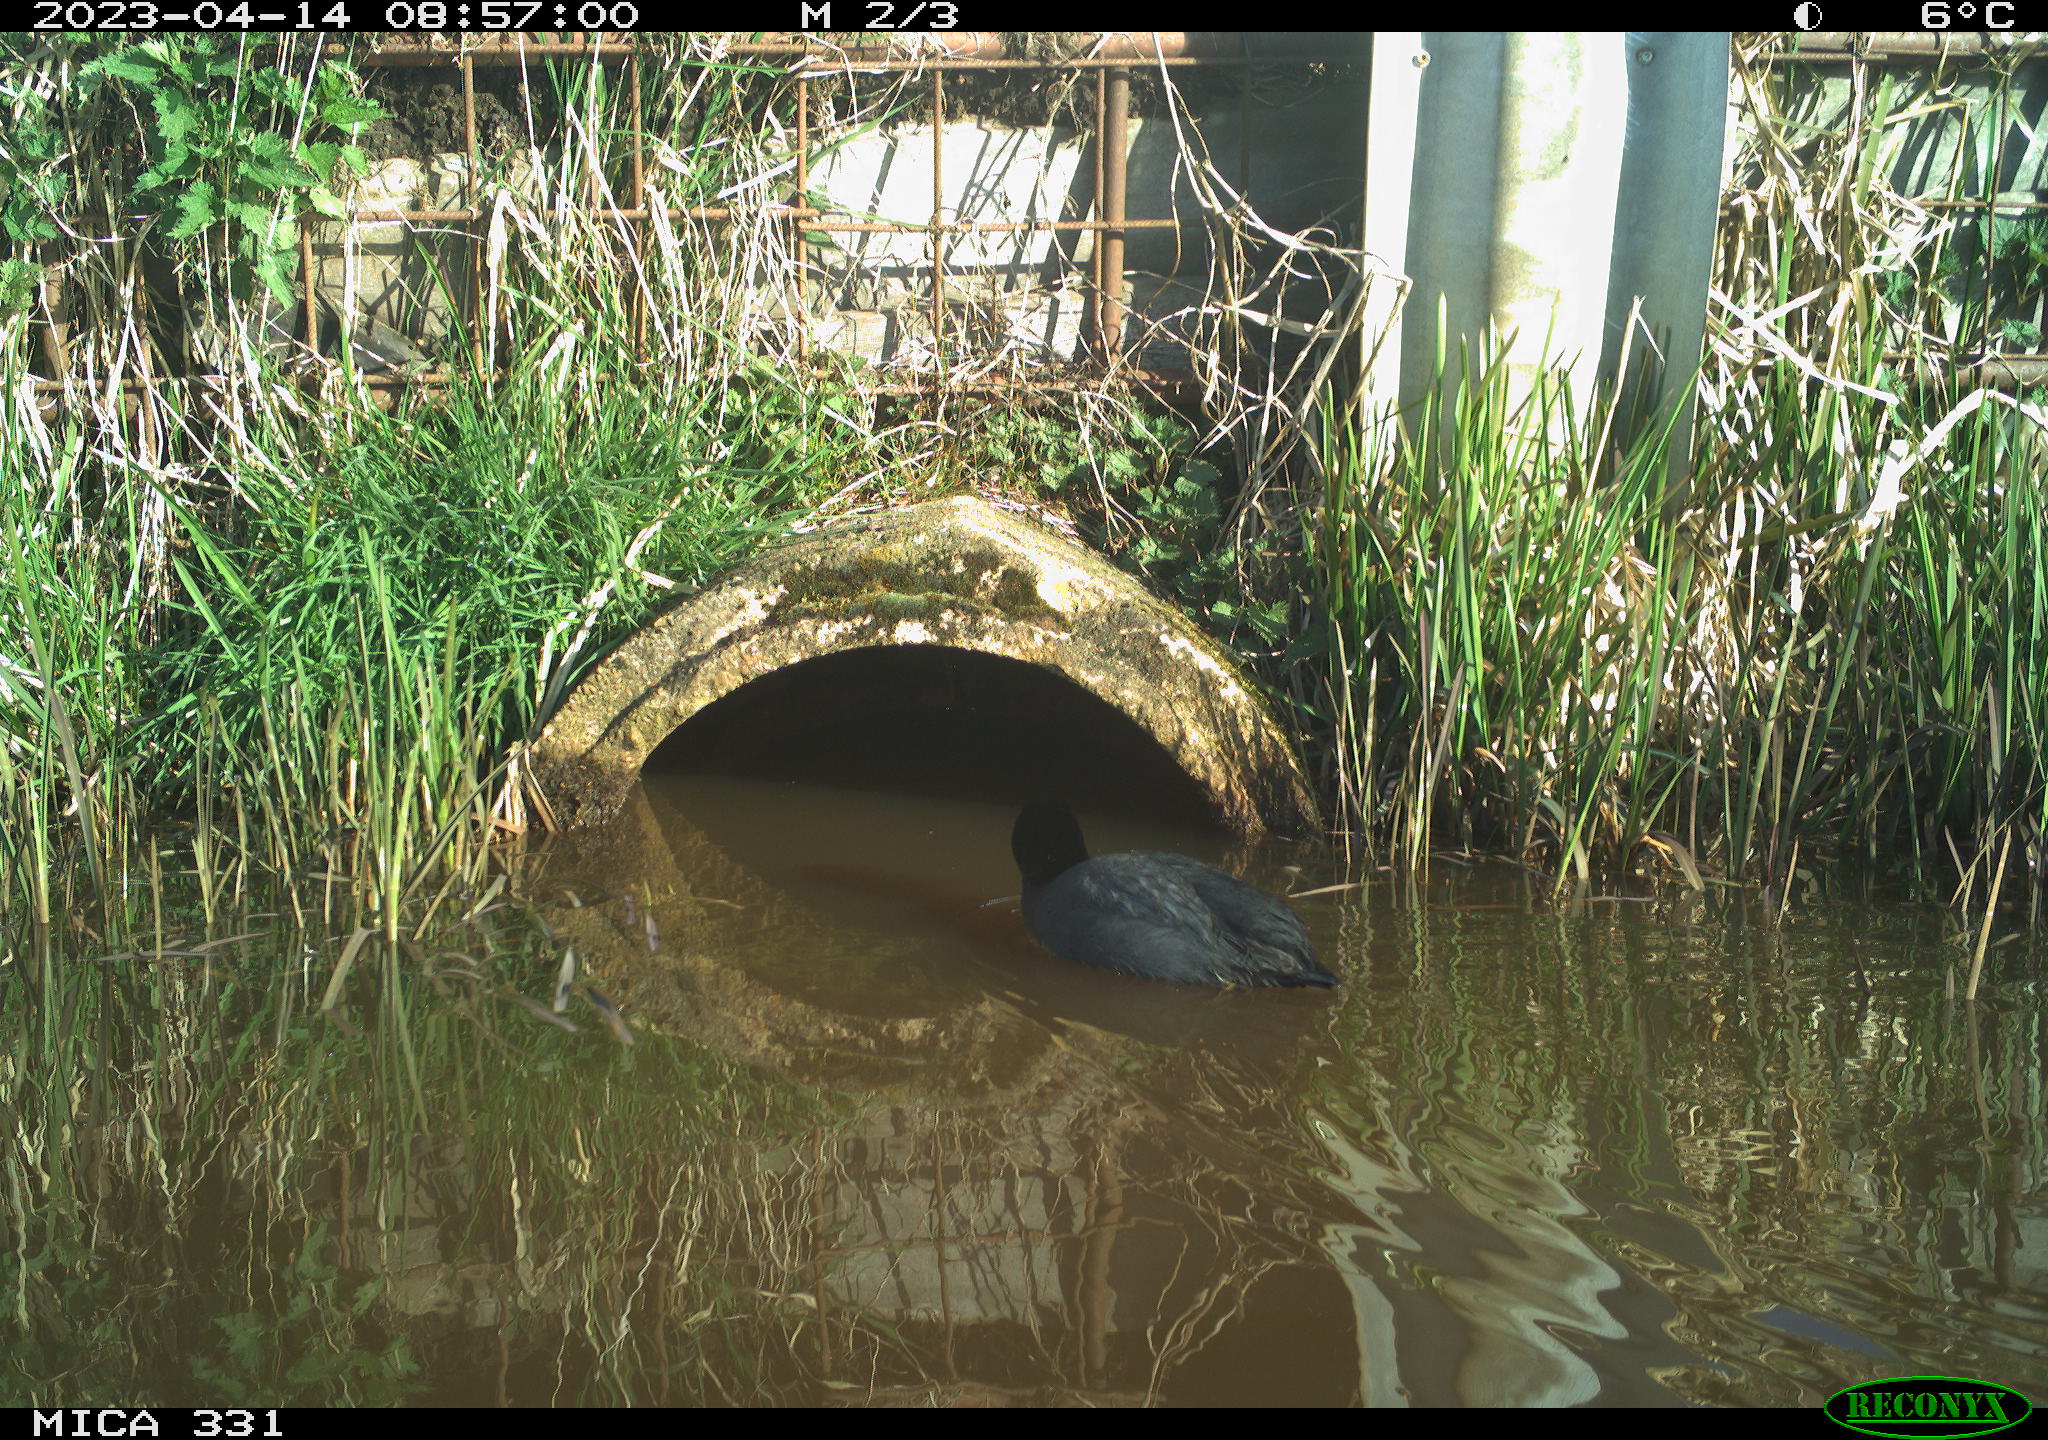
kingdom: Animalia
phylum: Chordata
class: Aves
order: Gruiformes
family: Rallidae
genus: Fulica
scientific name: Fulica atra
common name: Eurasian coot
